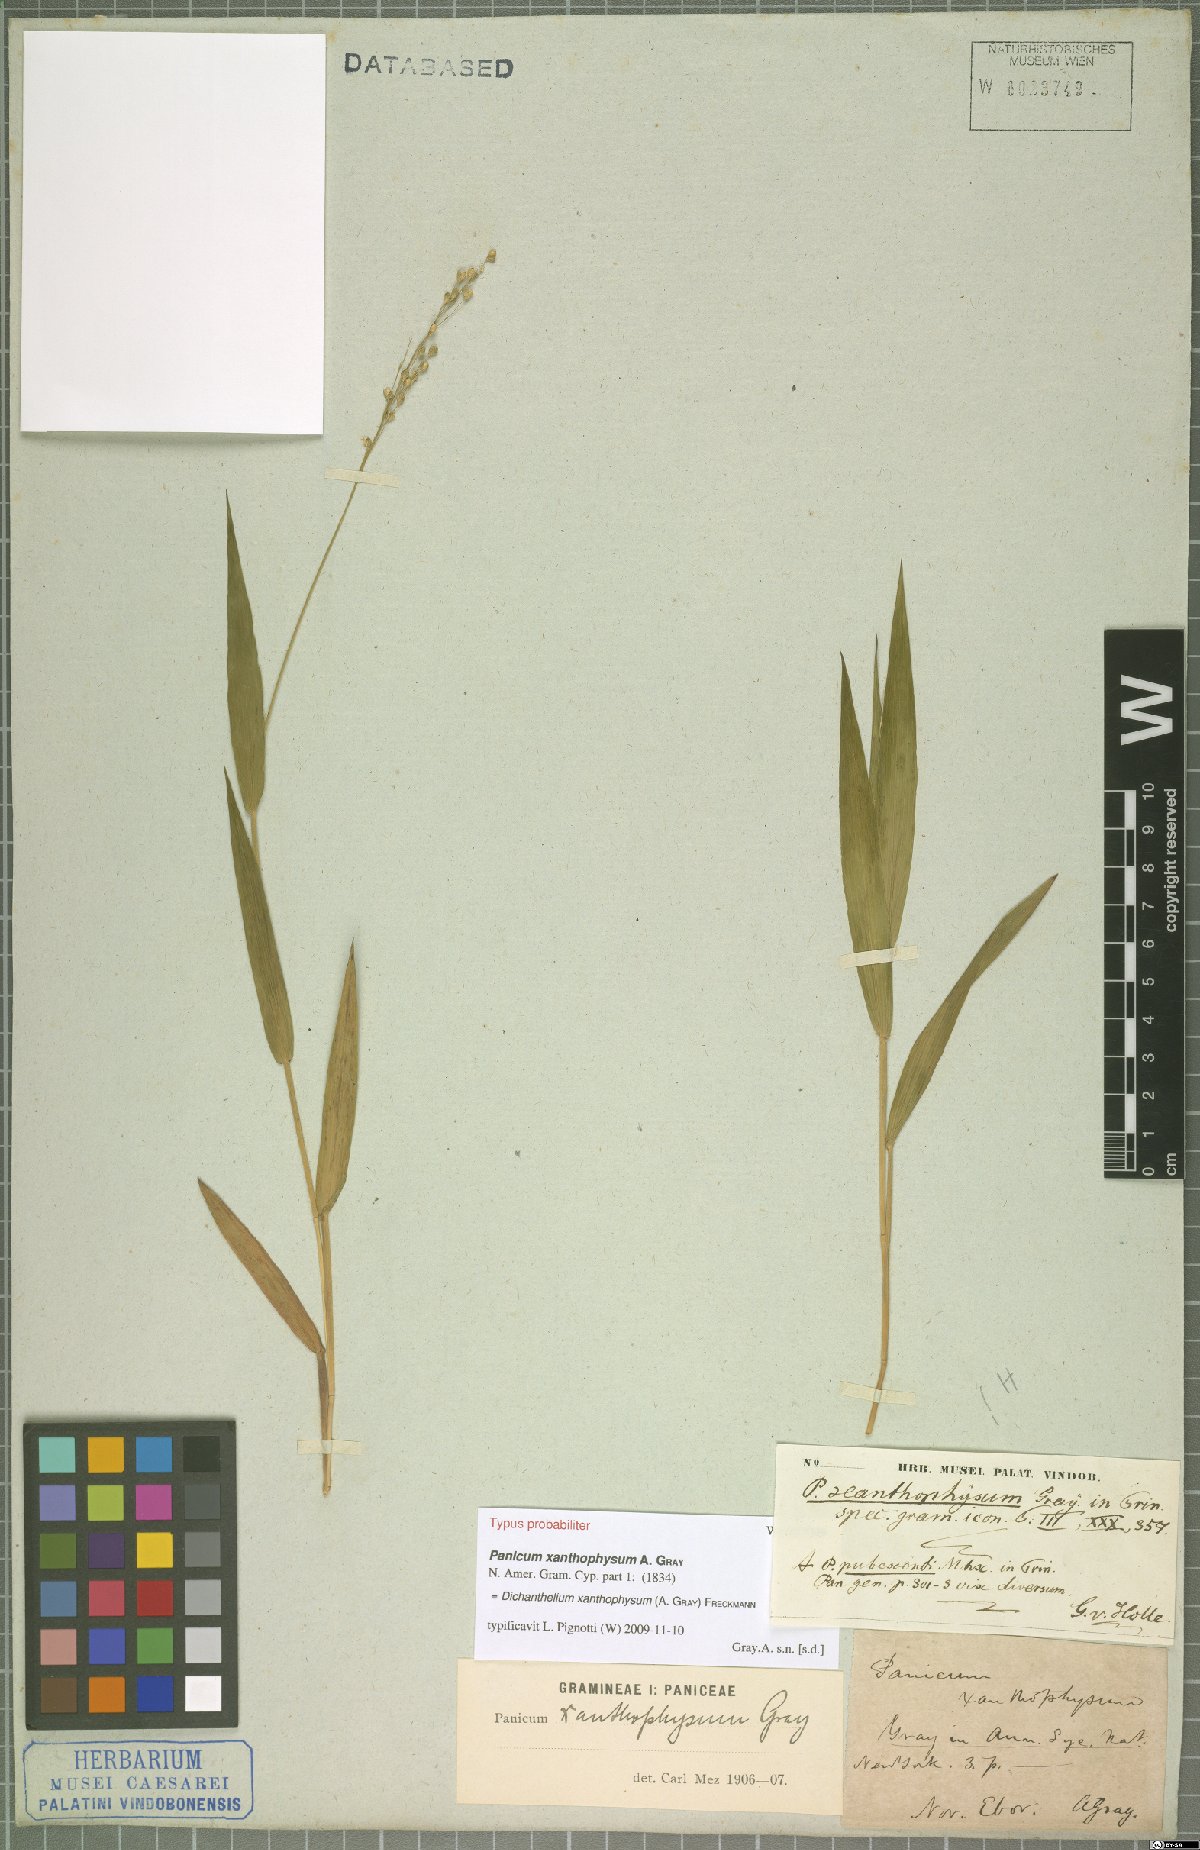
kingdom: Plantae
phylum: Tracheophyta
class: Liliopsida
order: Poales
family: Poaceae
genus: Dichanthelium
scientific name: Dichanthelium xanthophysum
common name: Pale panicgrass
